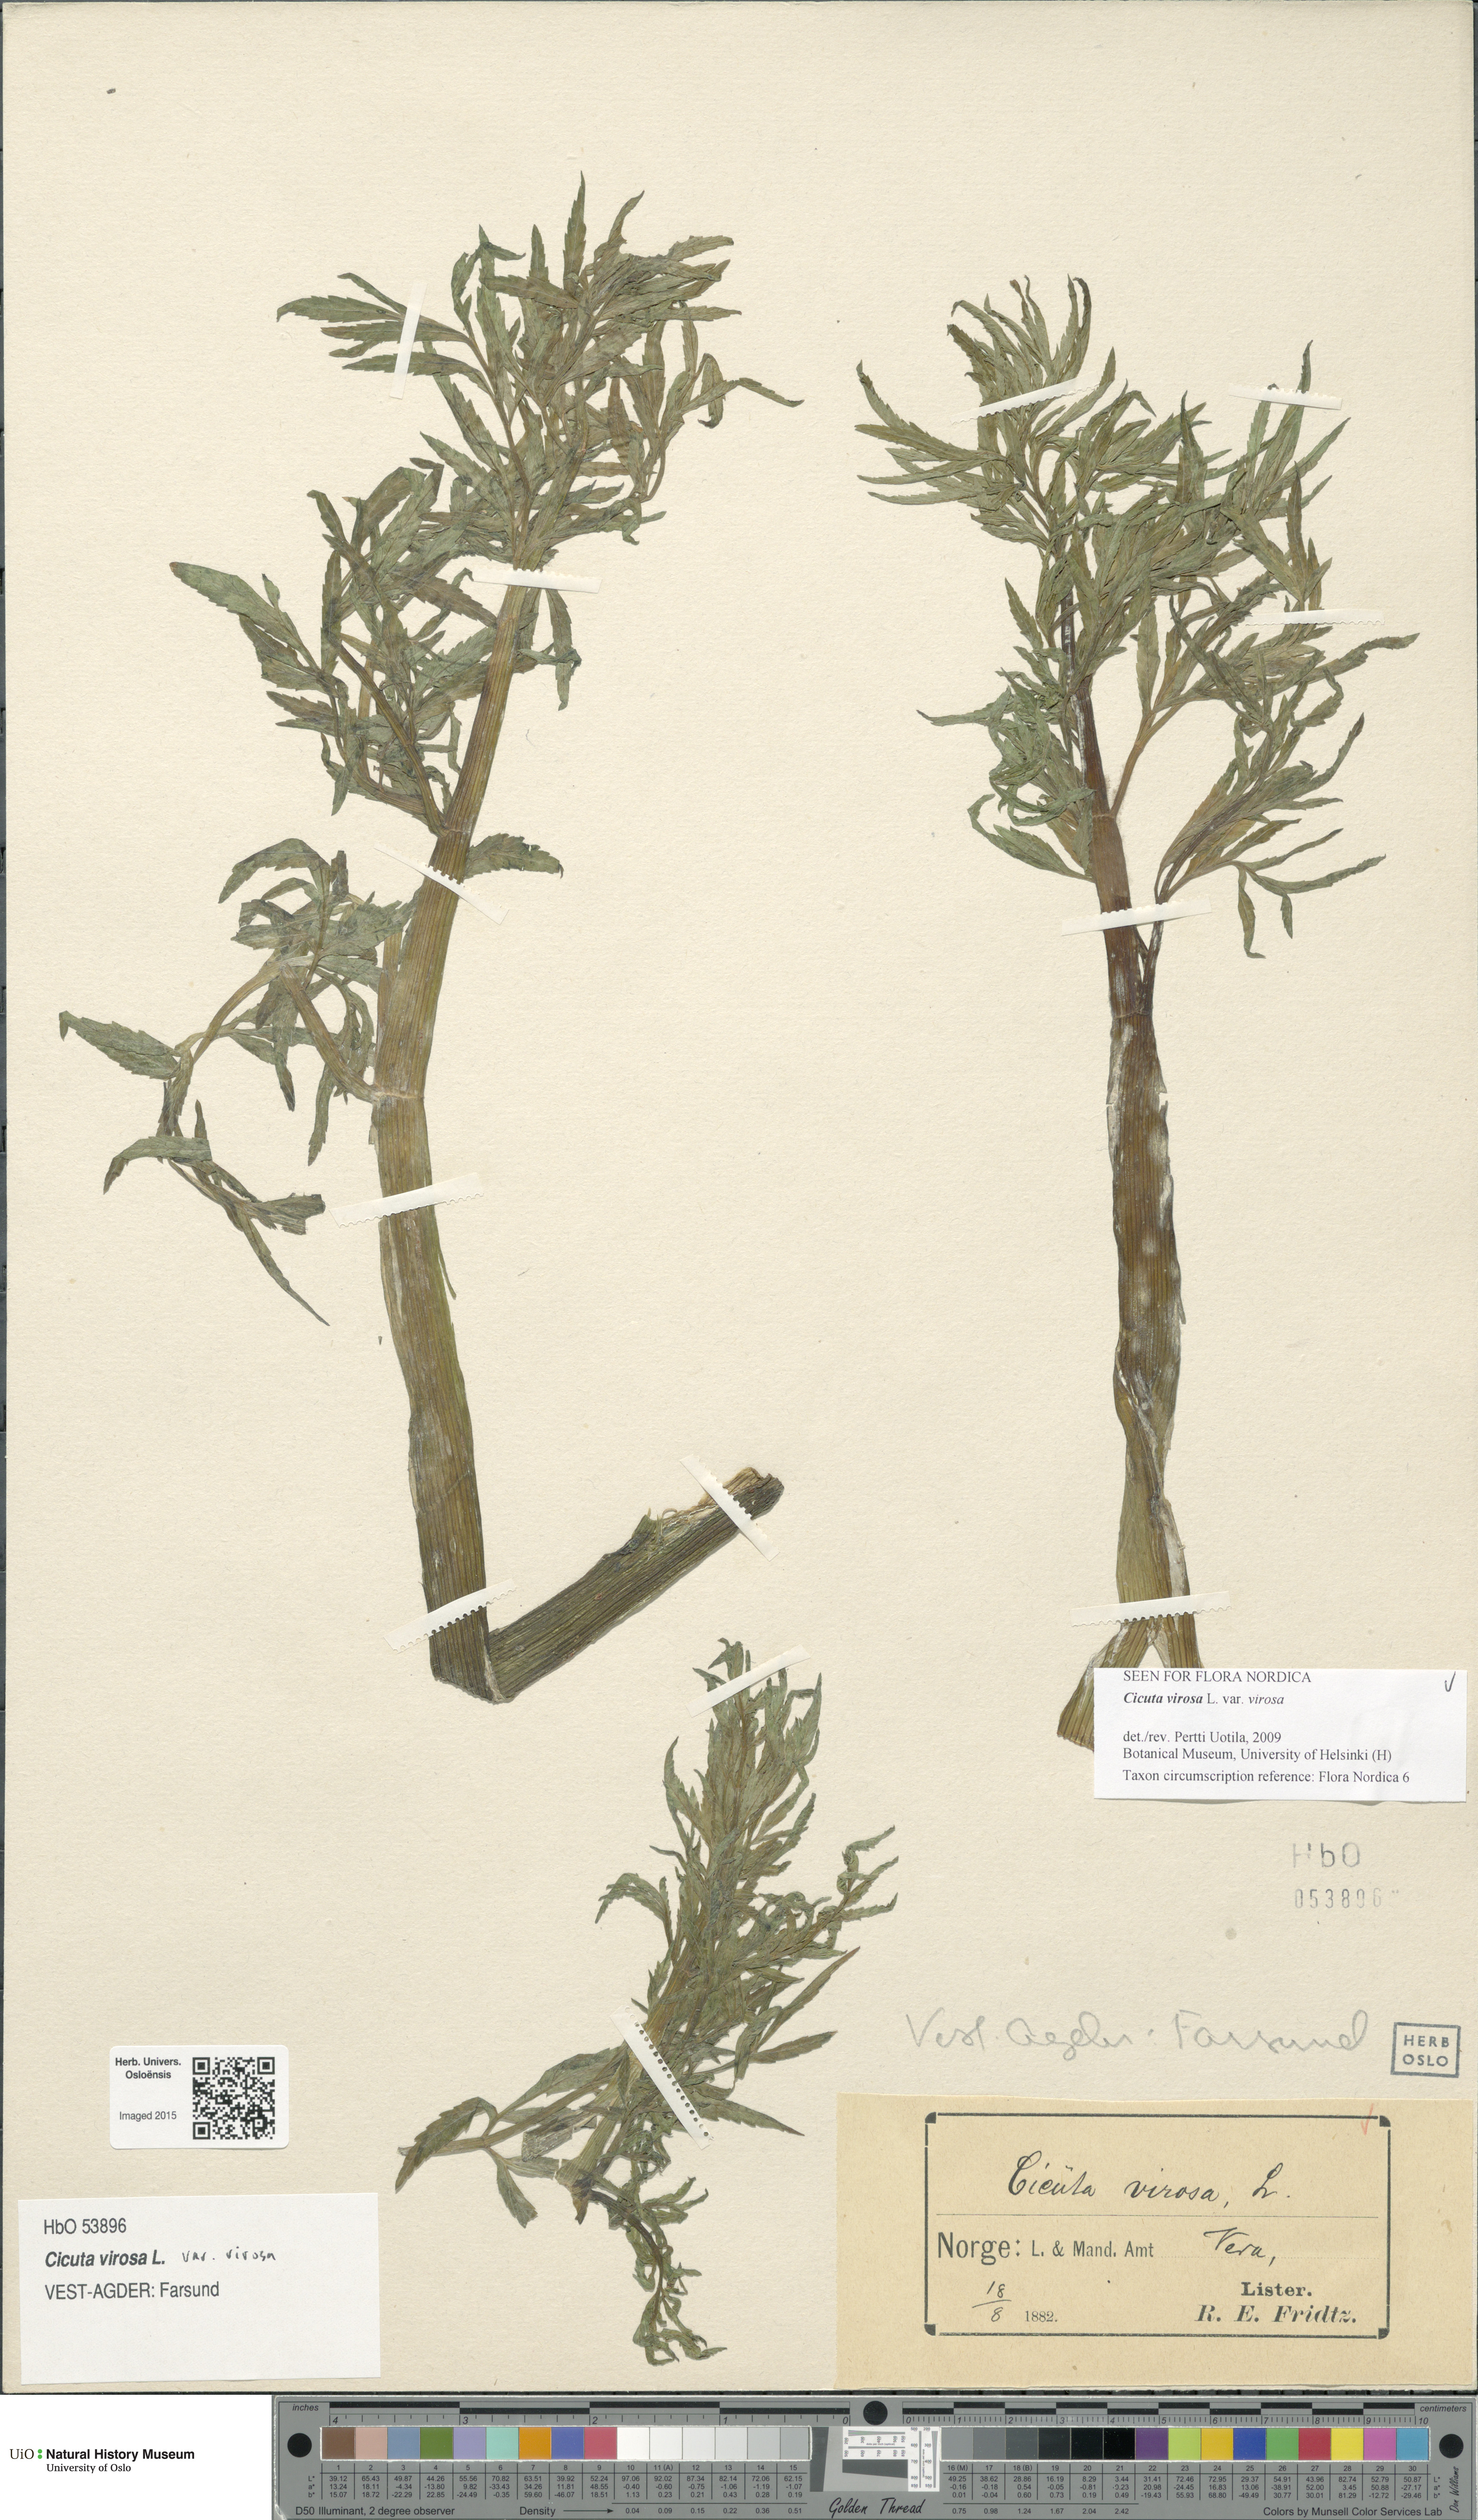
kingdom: Plantae
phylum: Tracheophyta
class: Magnoliopsida
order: Apiales
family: Apiaceae
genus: Cicuta
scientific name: Cicuta virosa
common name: Cowbane
